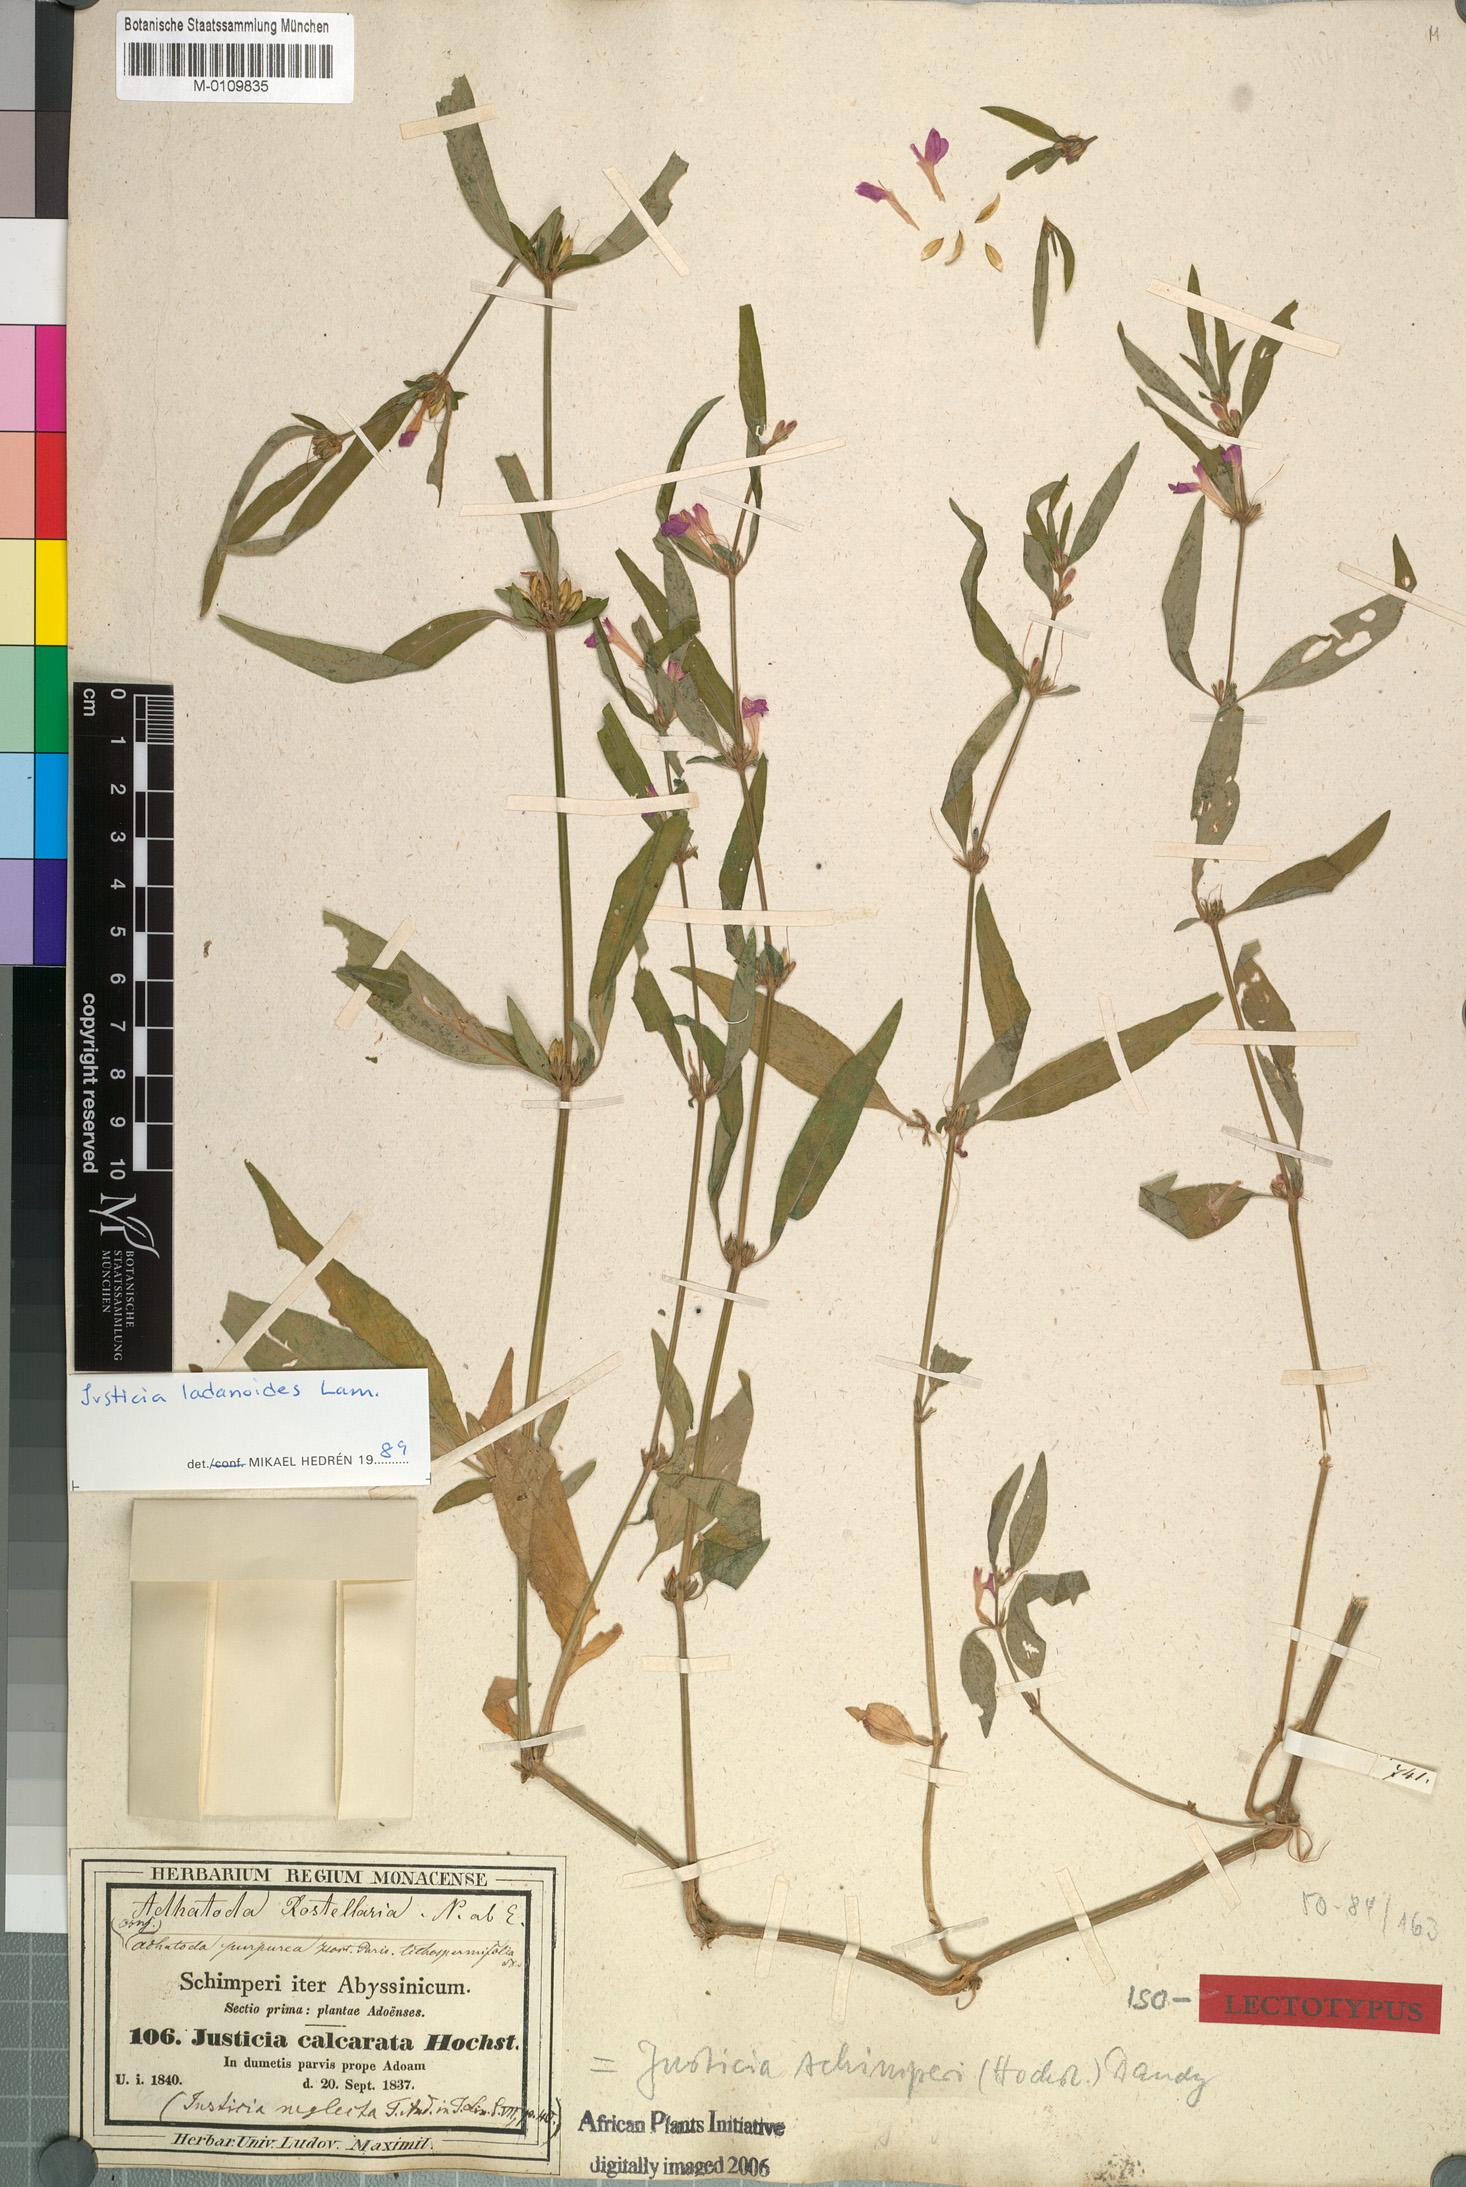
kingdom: Plantae
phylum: Tracheophyta
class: Magnoliopsida
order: Lamiales
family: Acanthaceae
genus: Justicia
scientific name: Justicia ladanoides
